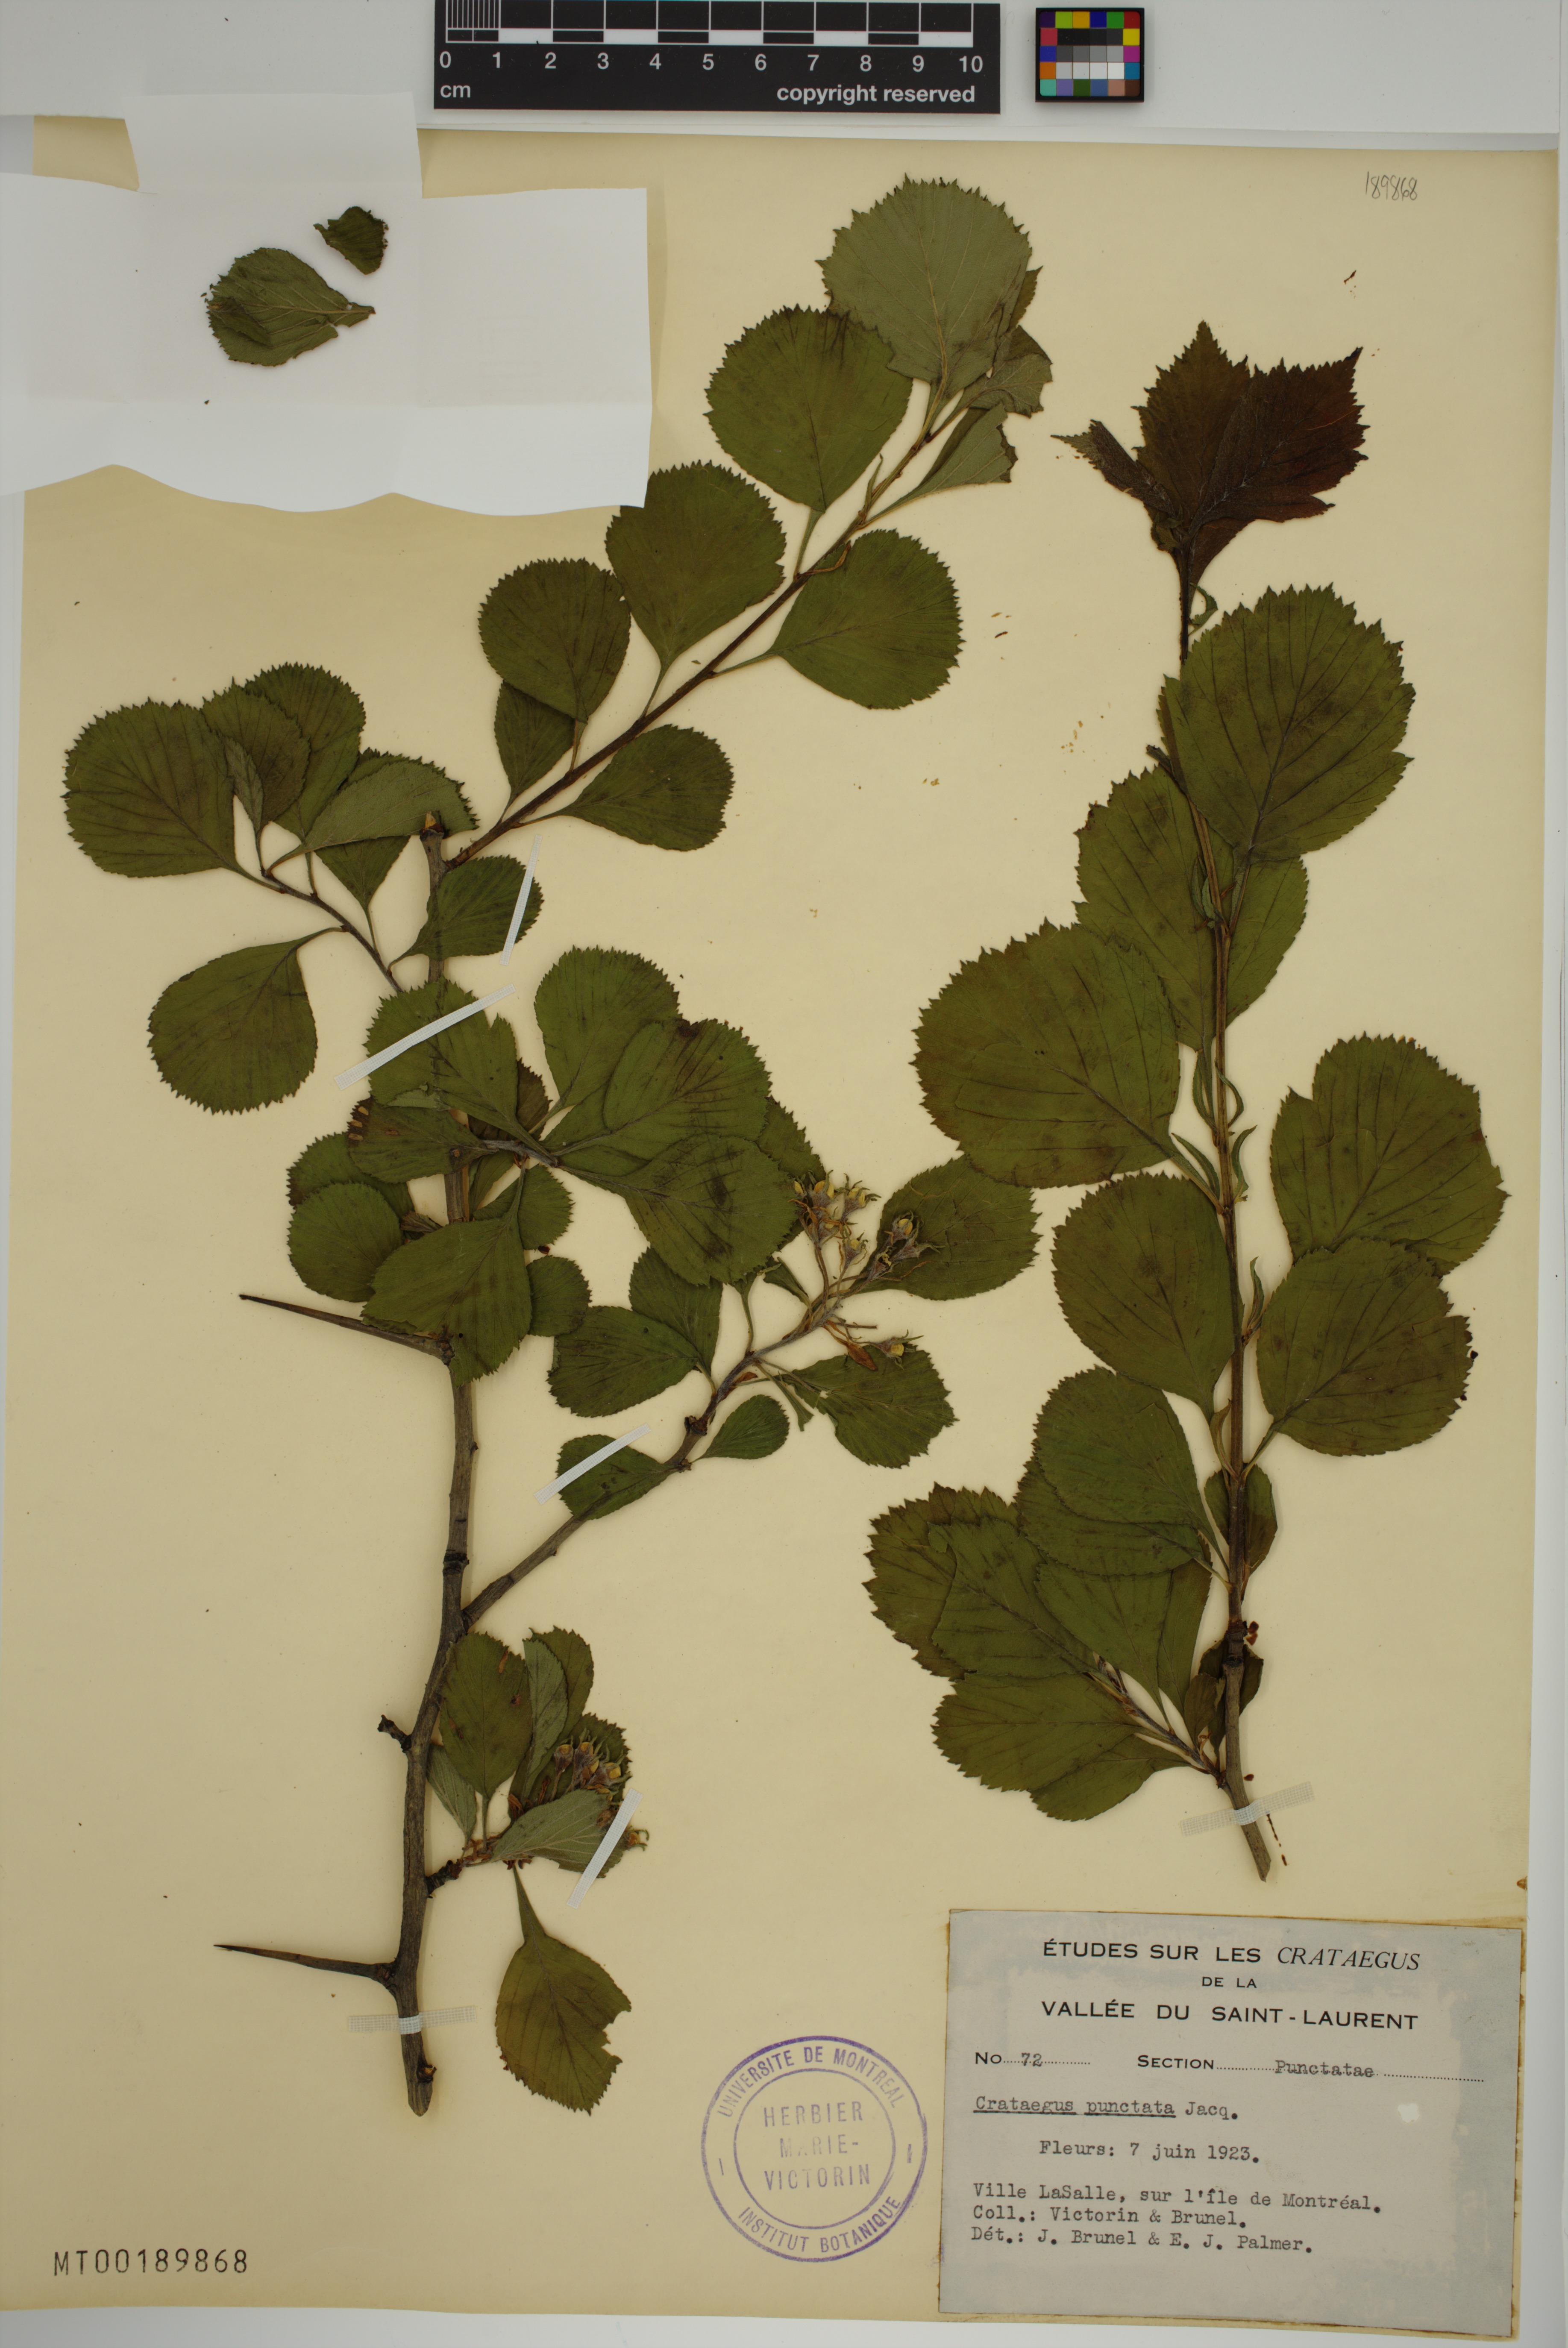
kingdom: Plantae
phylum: Tracheophyta
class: Magnoliopsida
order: Rosales
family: Rosaceae
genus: Crataegus
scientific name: Crataegus punctata
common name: Dotted hawthorn
